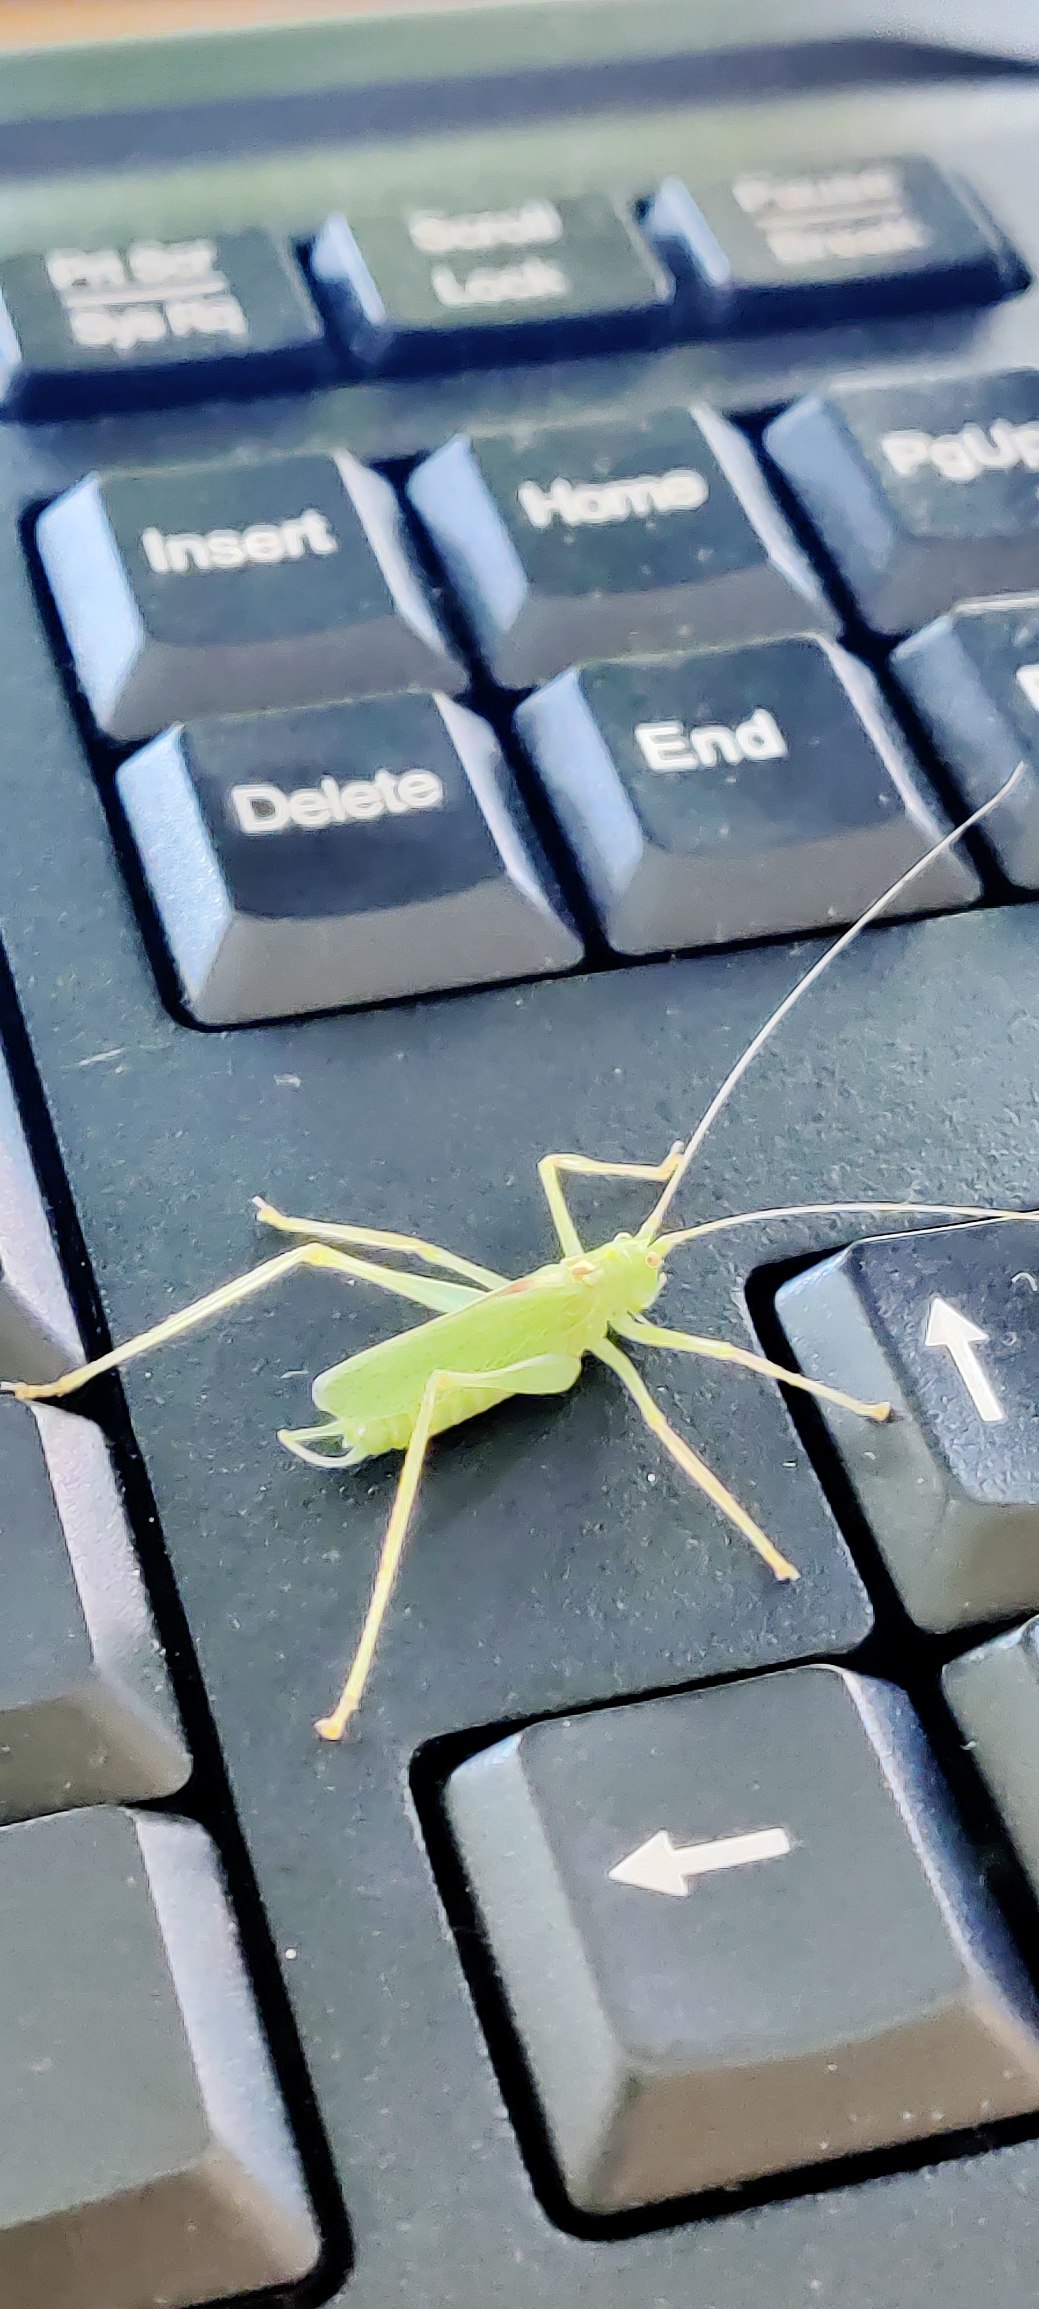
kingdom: Animalia
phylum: Arthropoda
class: Insecta
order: Orthoptera
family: Tettigoniidae
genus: Meconema
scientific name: Meconema thalassinum
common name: Egegræshoppe
